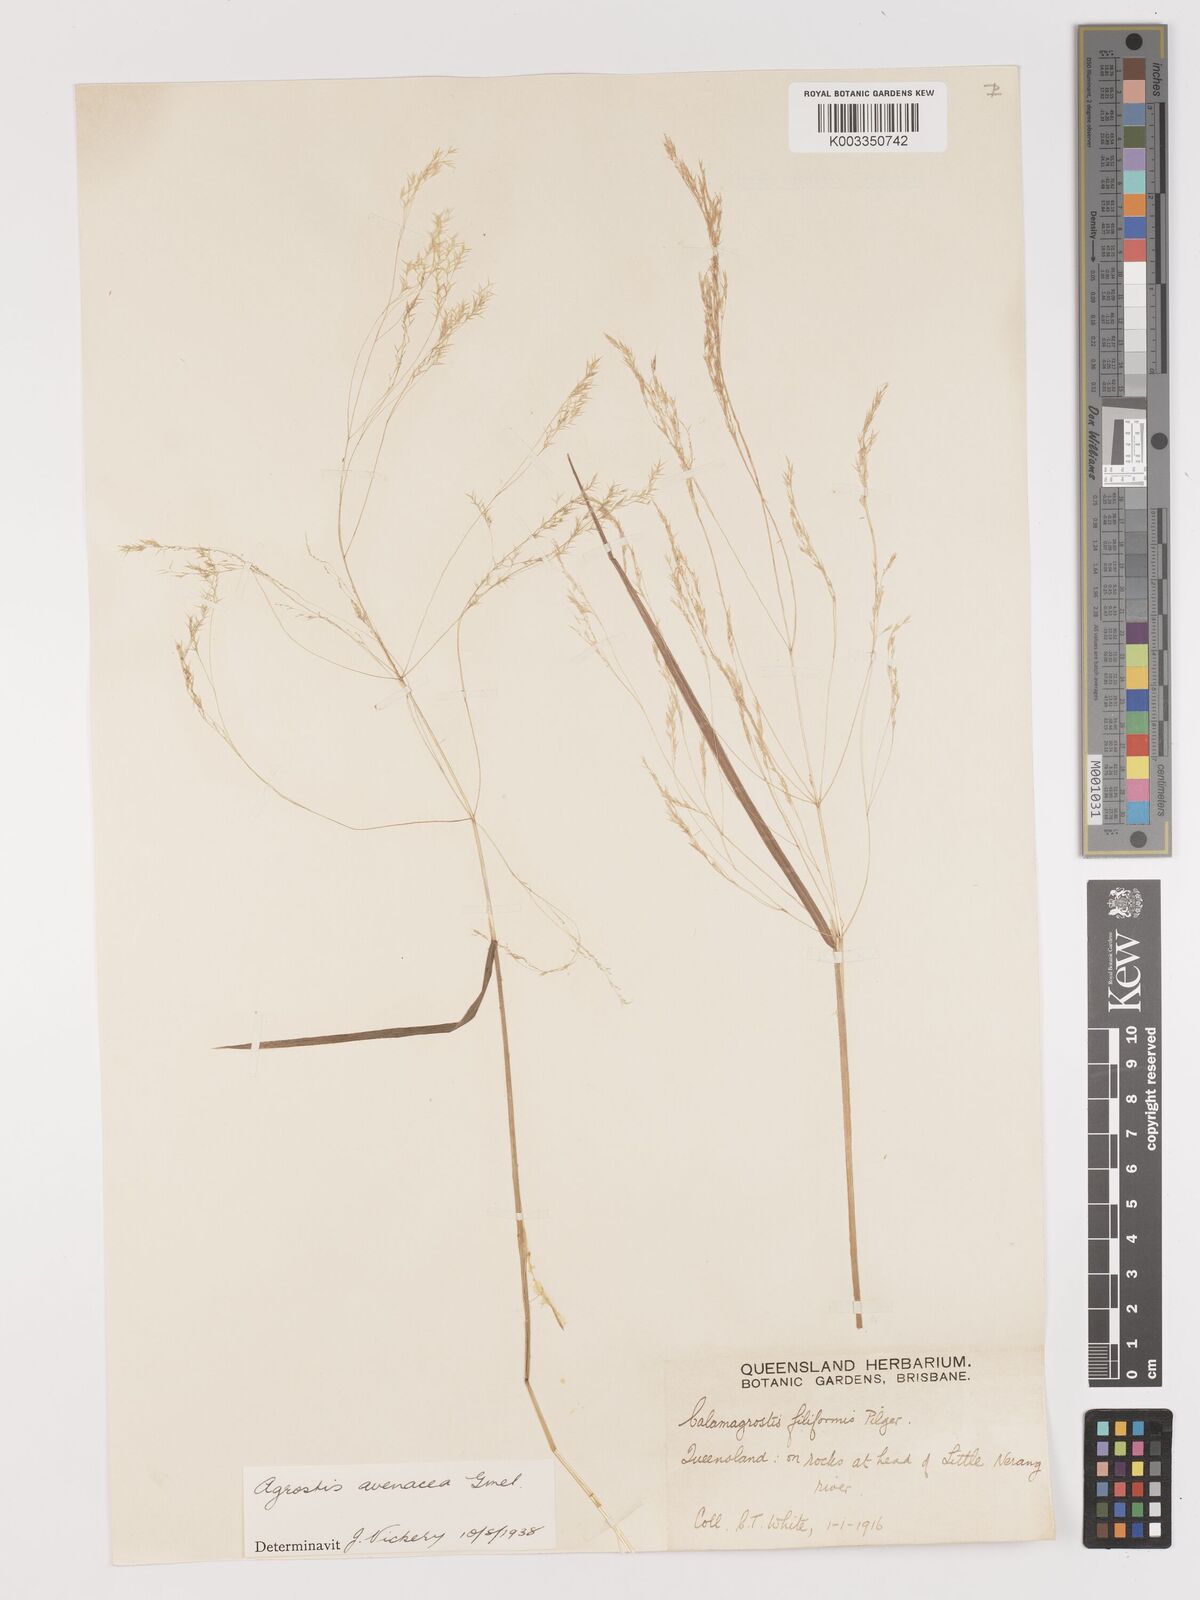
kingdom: Plantae
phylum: Tracheophyta
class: Liliopsida
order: Poales
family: Poaceae
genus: Lachnagrostis
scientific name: Lachnagrostis filiformis
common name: Bentgrass
